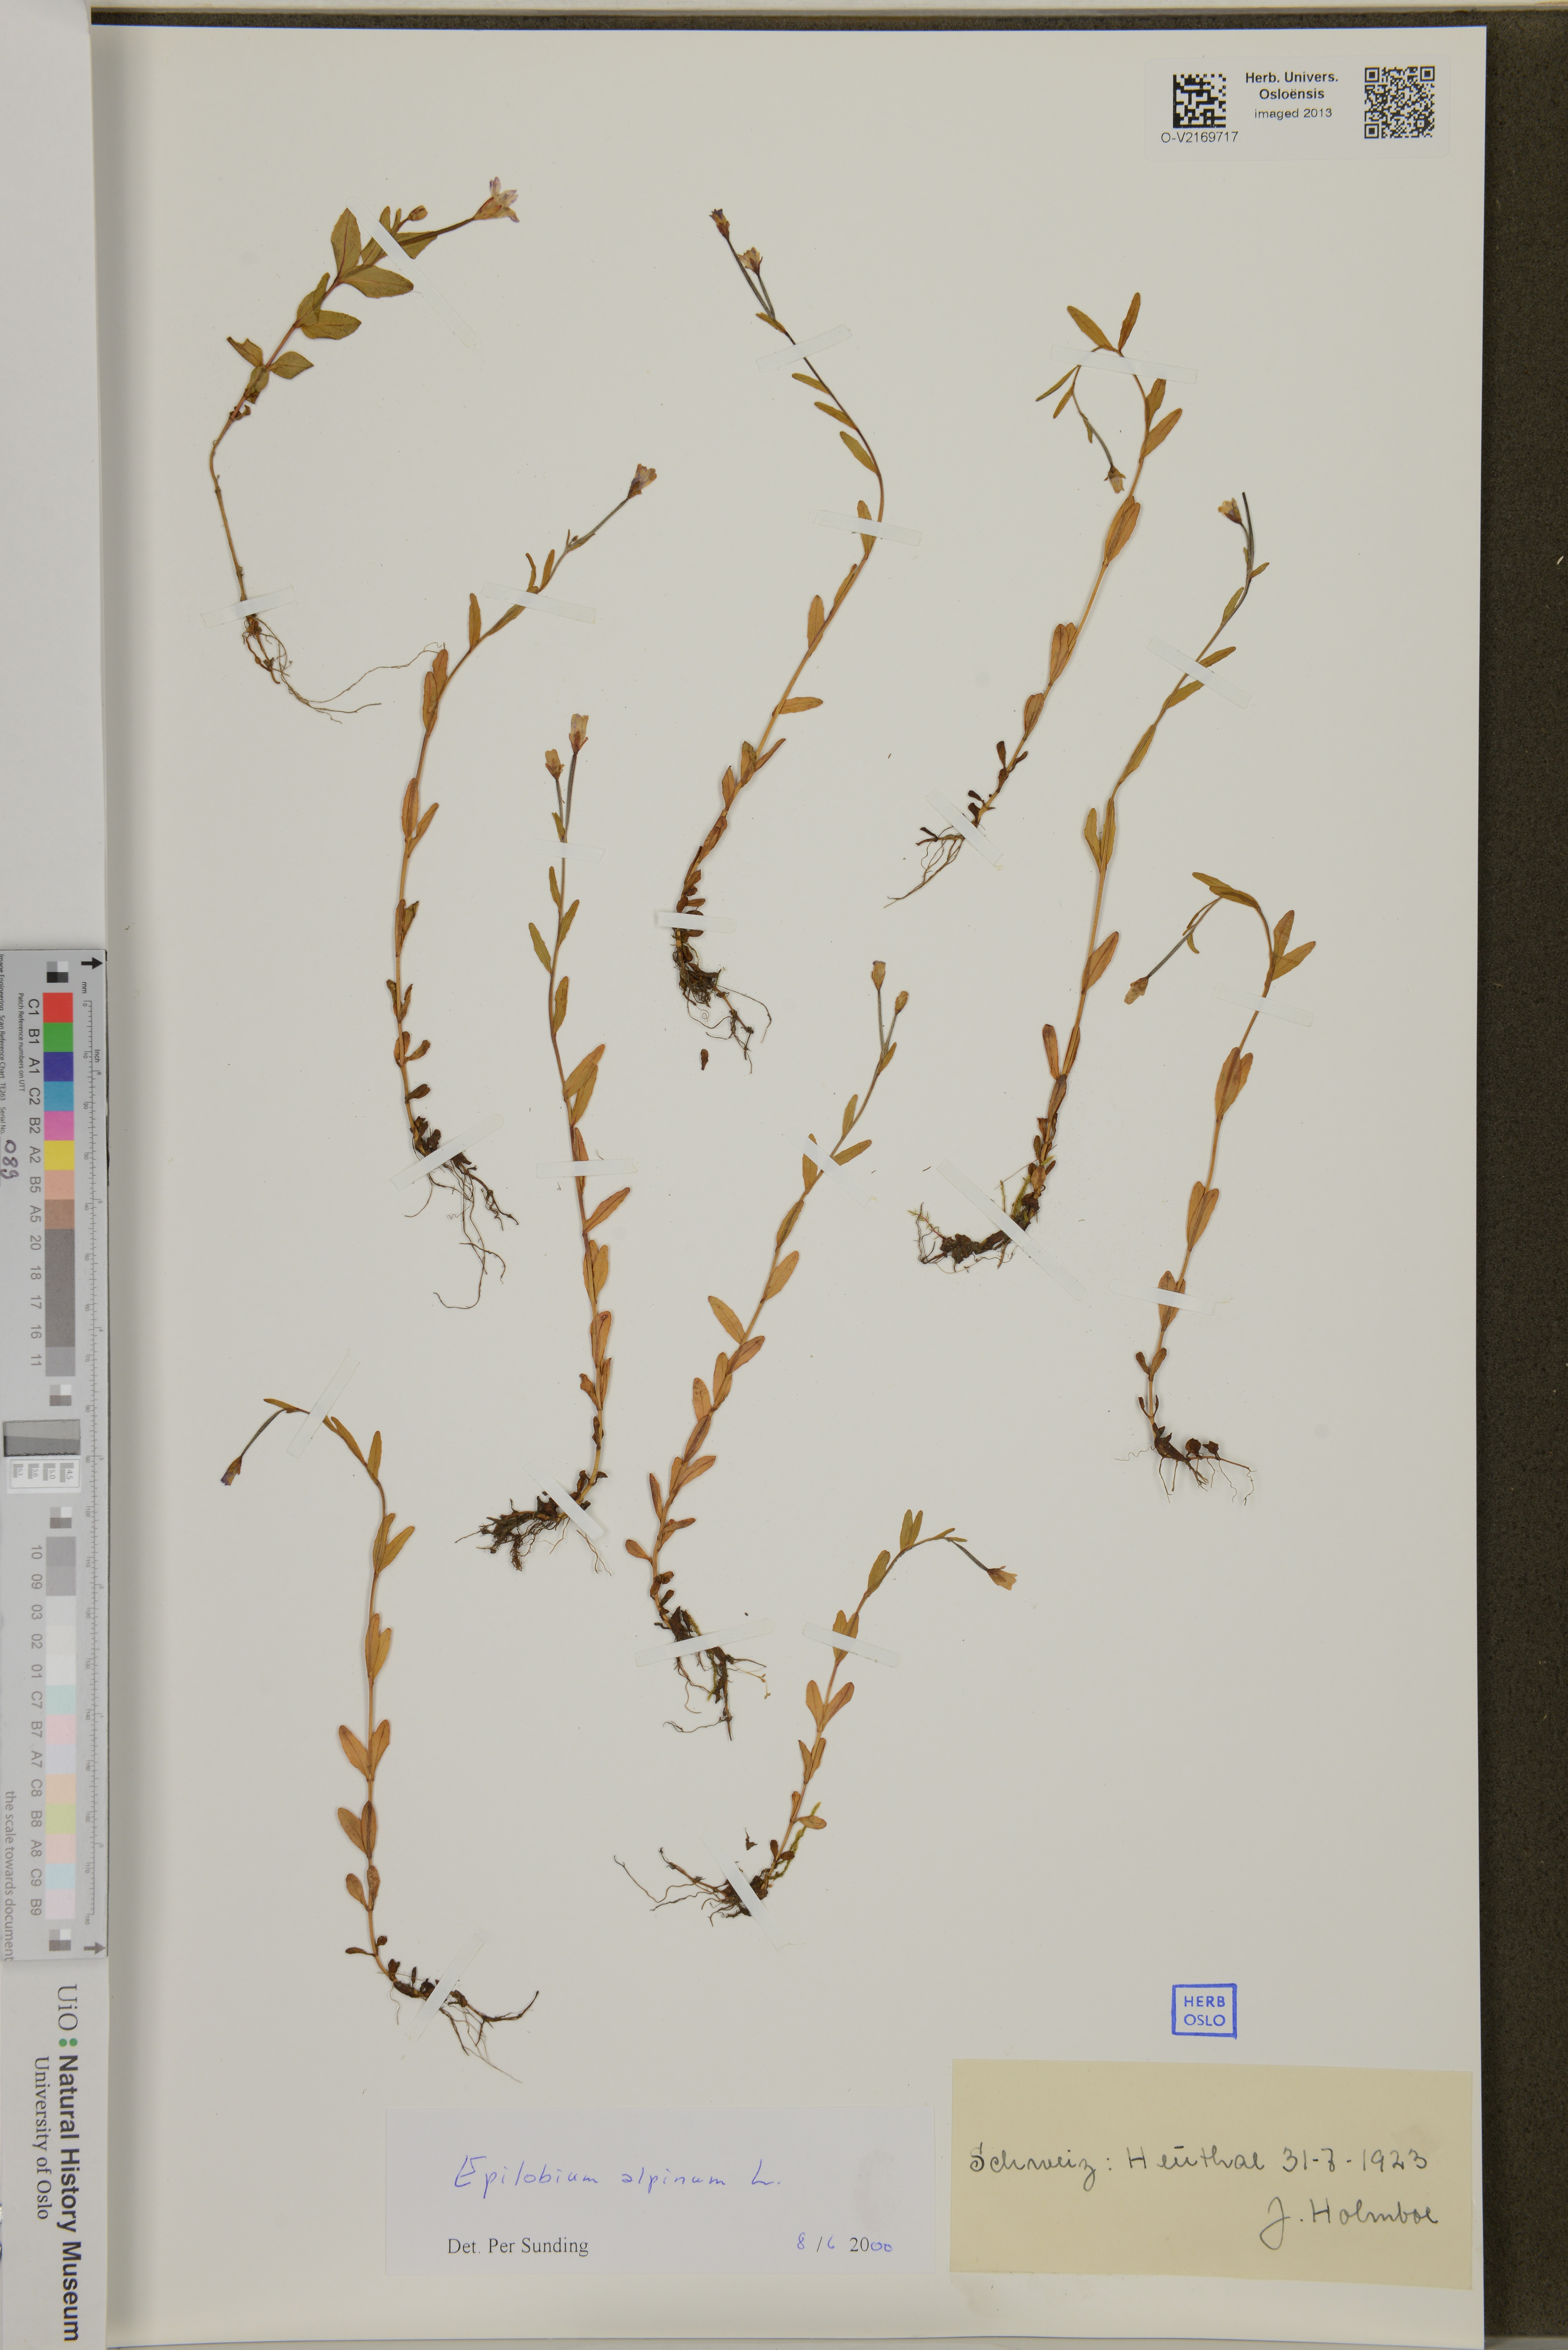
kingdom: Plantae
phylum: Tracheophyta
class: Magnoliopsida
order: Myrtales
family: Onagraceae
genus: Epilobium
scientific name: Epilobium anagallidifolium
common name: Alpine willowherb
